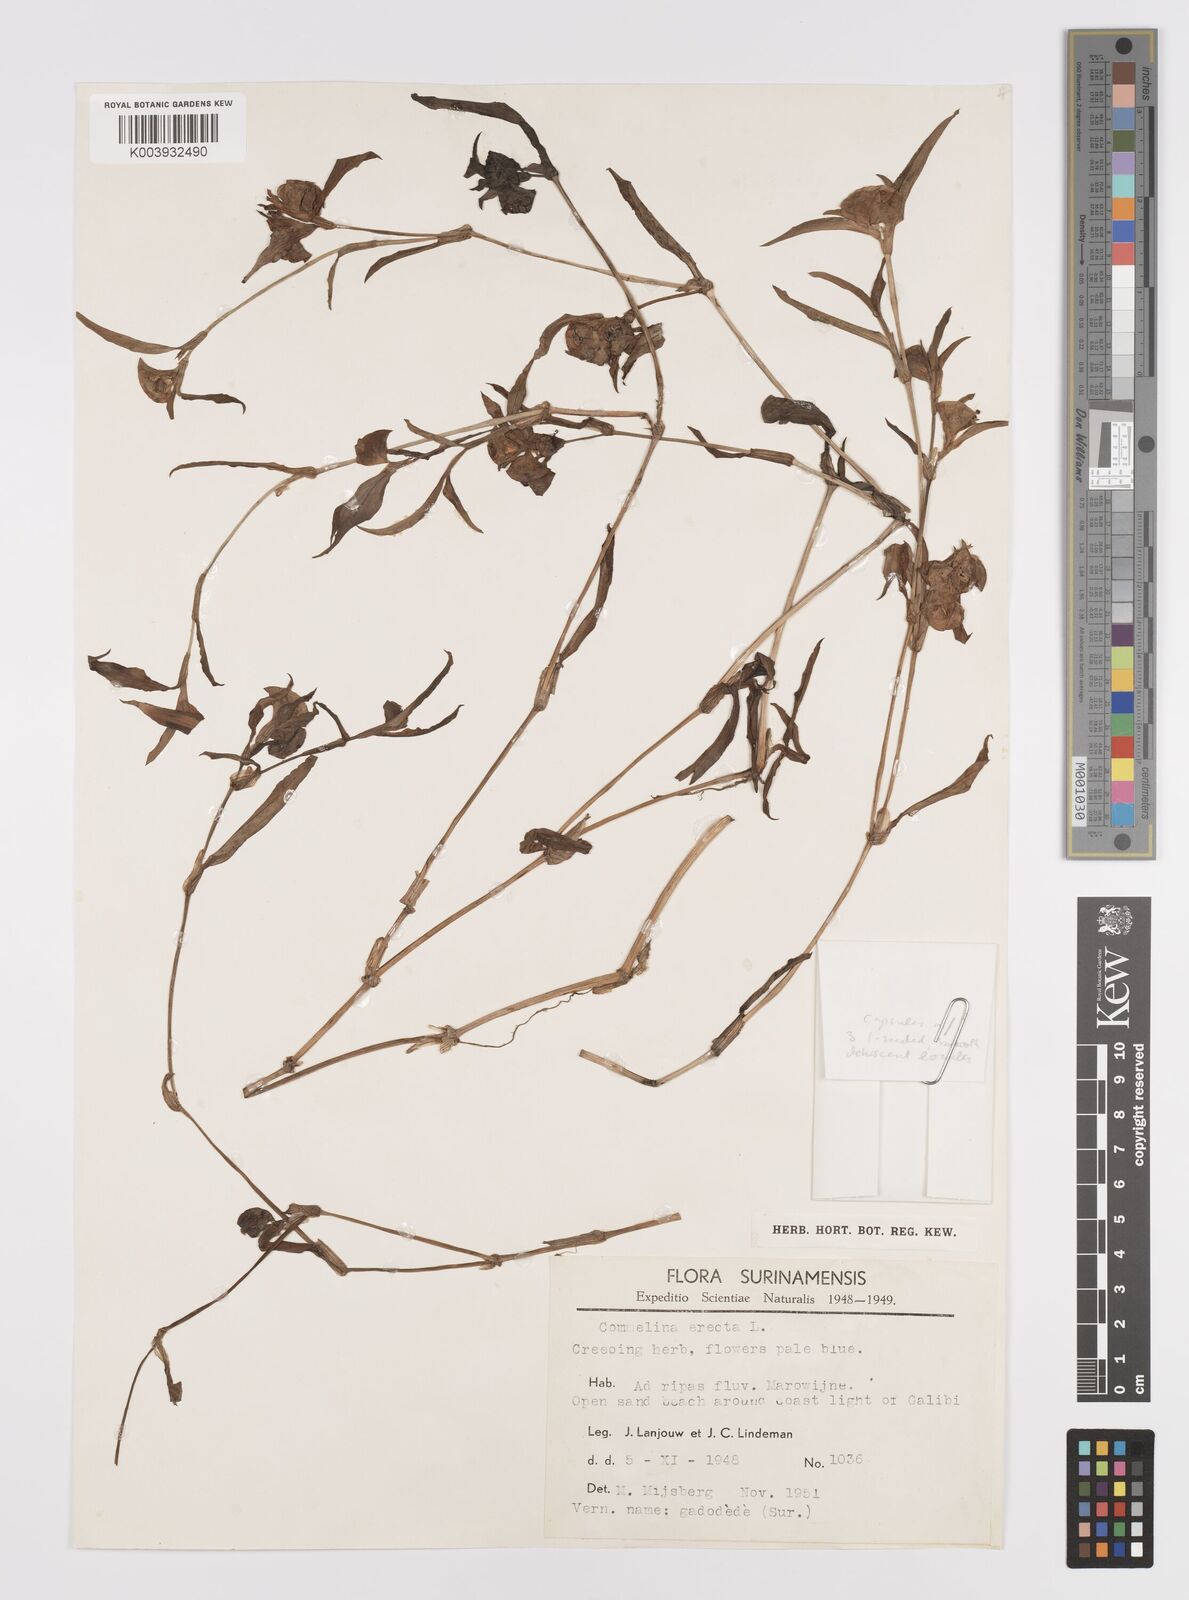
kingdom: Plantae
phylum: Tracheophyta
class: Liliopsida
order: Commelinales
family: Commelinaceae
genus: Commelina
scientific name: Commelina erecta
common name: Blousel blommetjie
